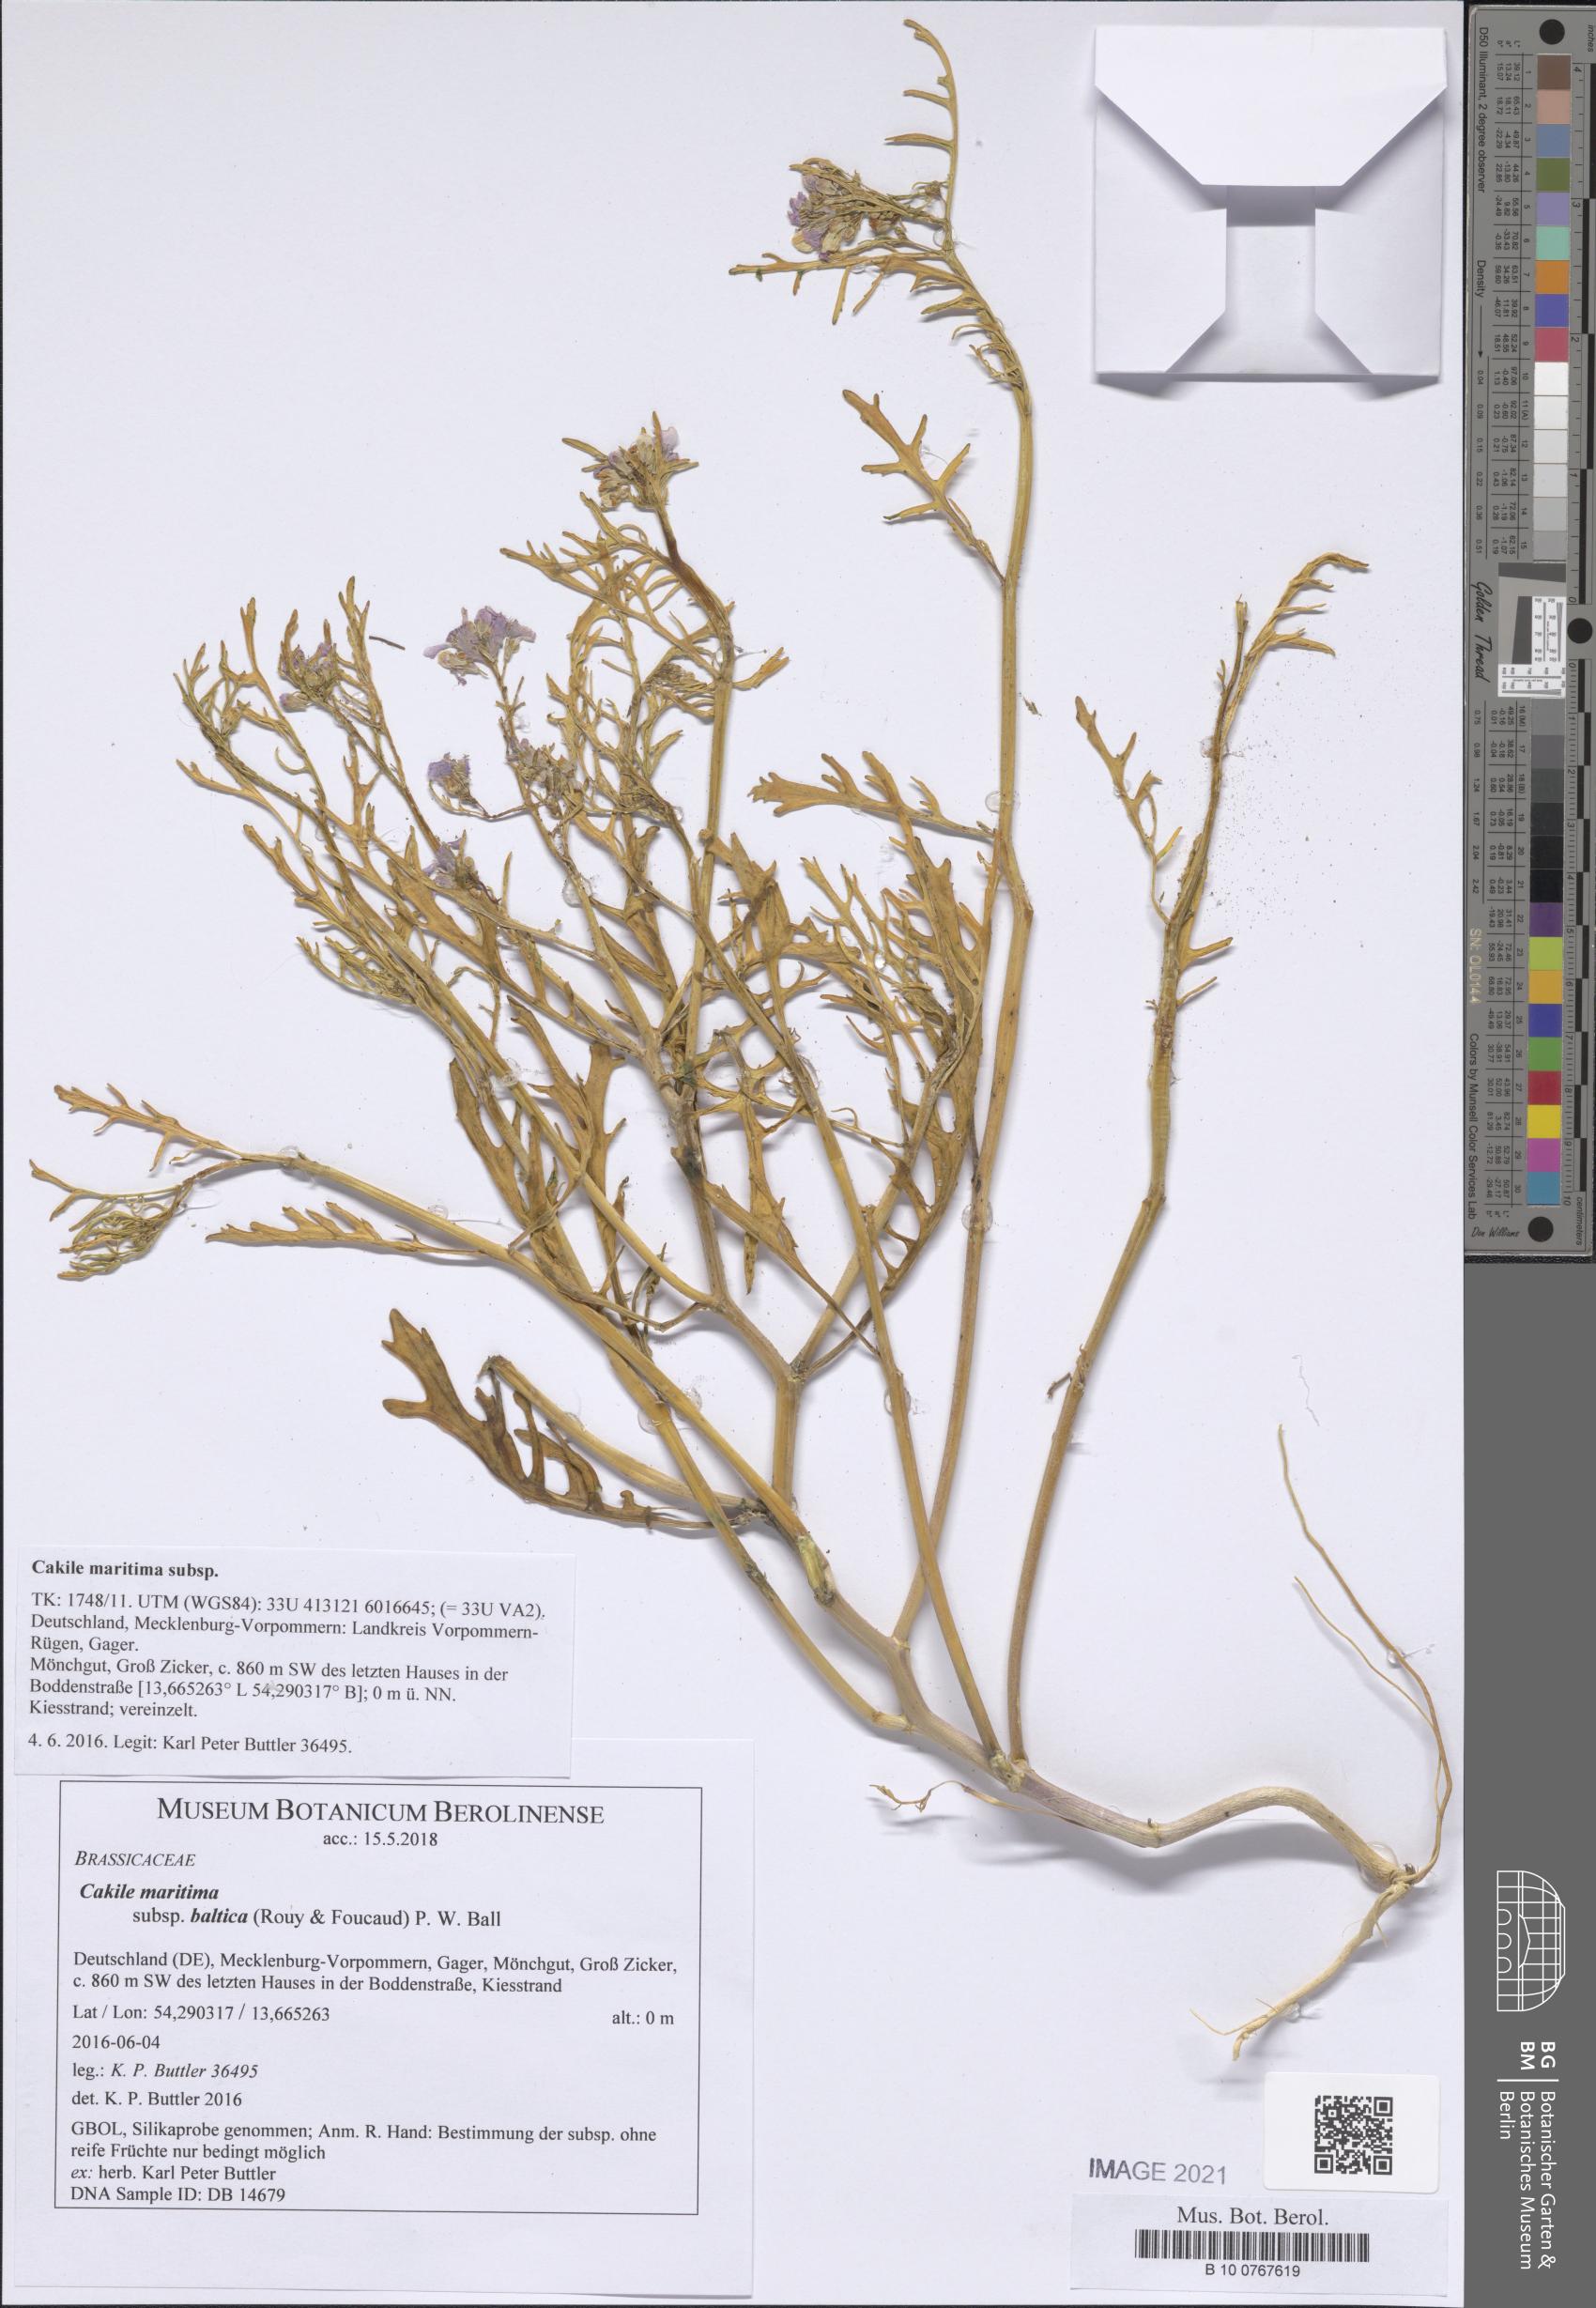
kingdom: Plantae
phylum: Tracheophyta
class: Magnoliopsida
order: Brassicales
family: Brassicaceae
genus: Cakile
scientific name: Cakile maritima
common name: Sea rocket
